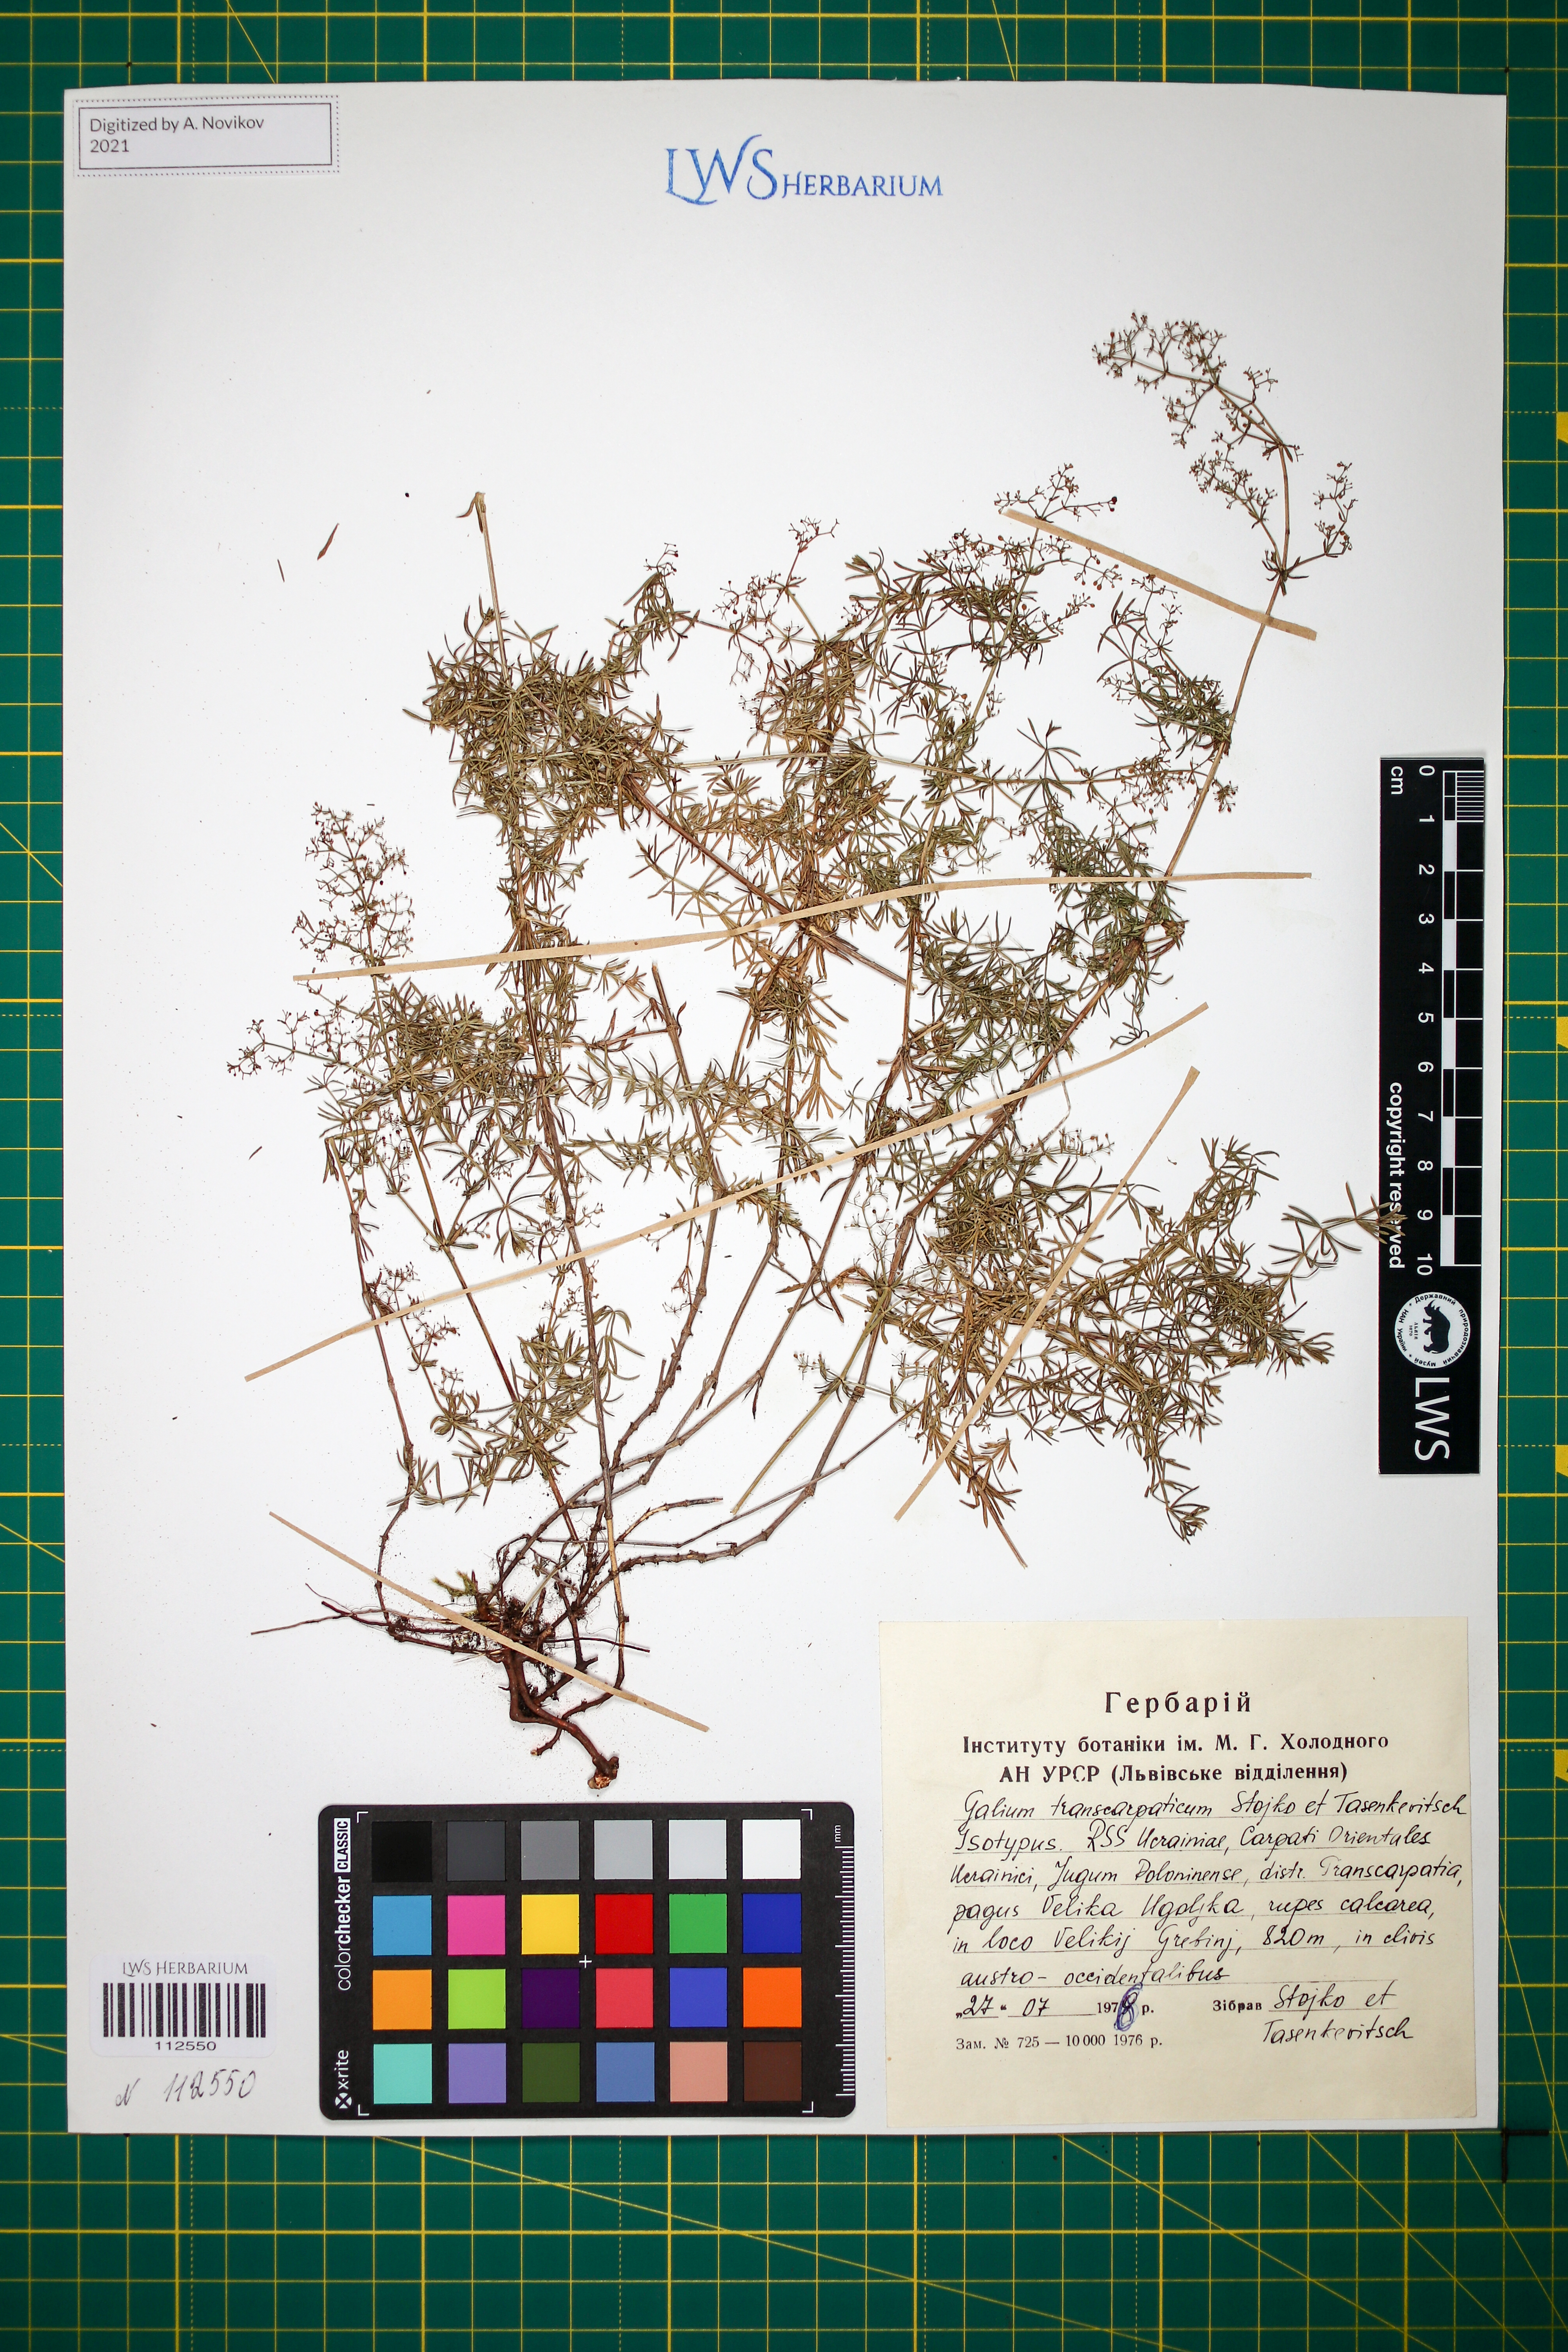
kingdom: Plantae
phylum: Tracheophyta
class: Magnoliopsida
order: Gentianales
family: Rubiaceae
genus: Galium
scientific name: Galium transcarpaticum
